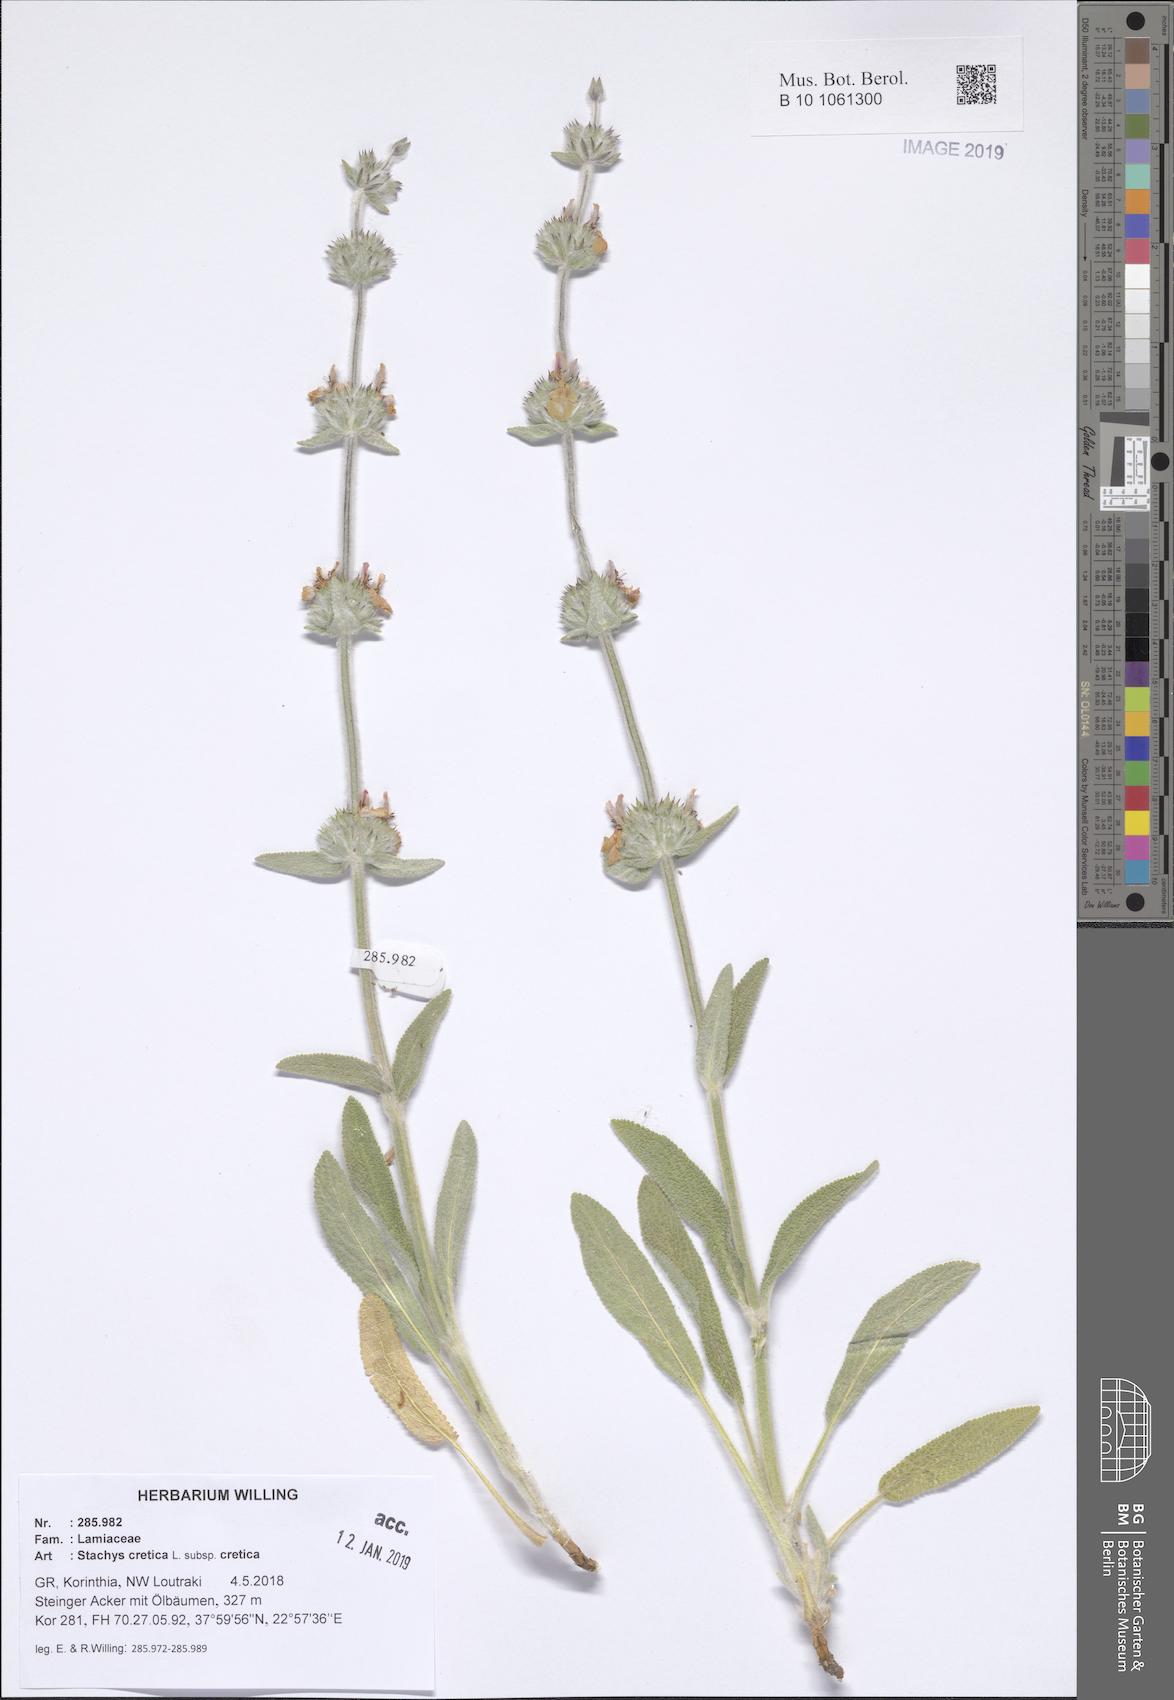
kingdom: Plantae
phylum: Tracheophyta
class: Magnoliopsida
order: Lamiales
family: Lamiaceae
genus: Stachys
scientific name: Stachys cretica
